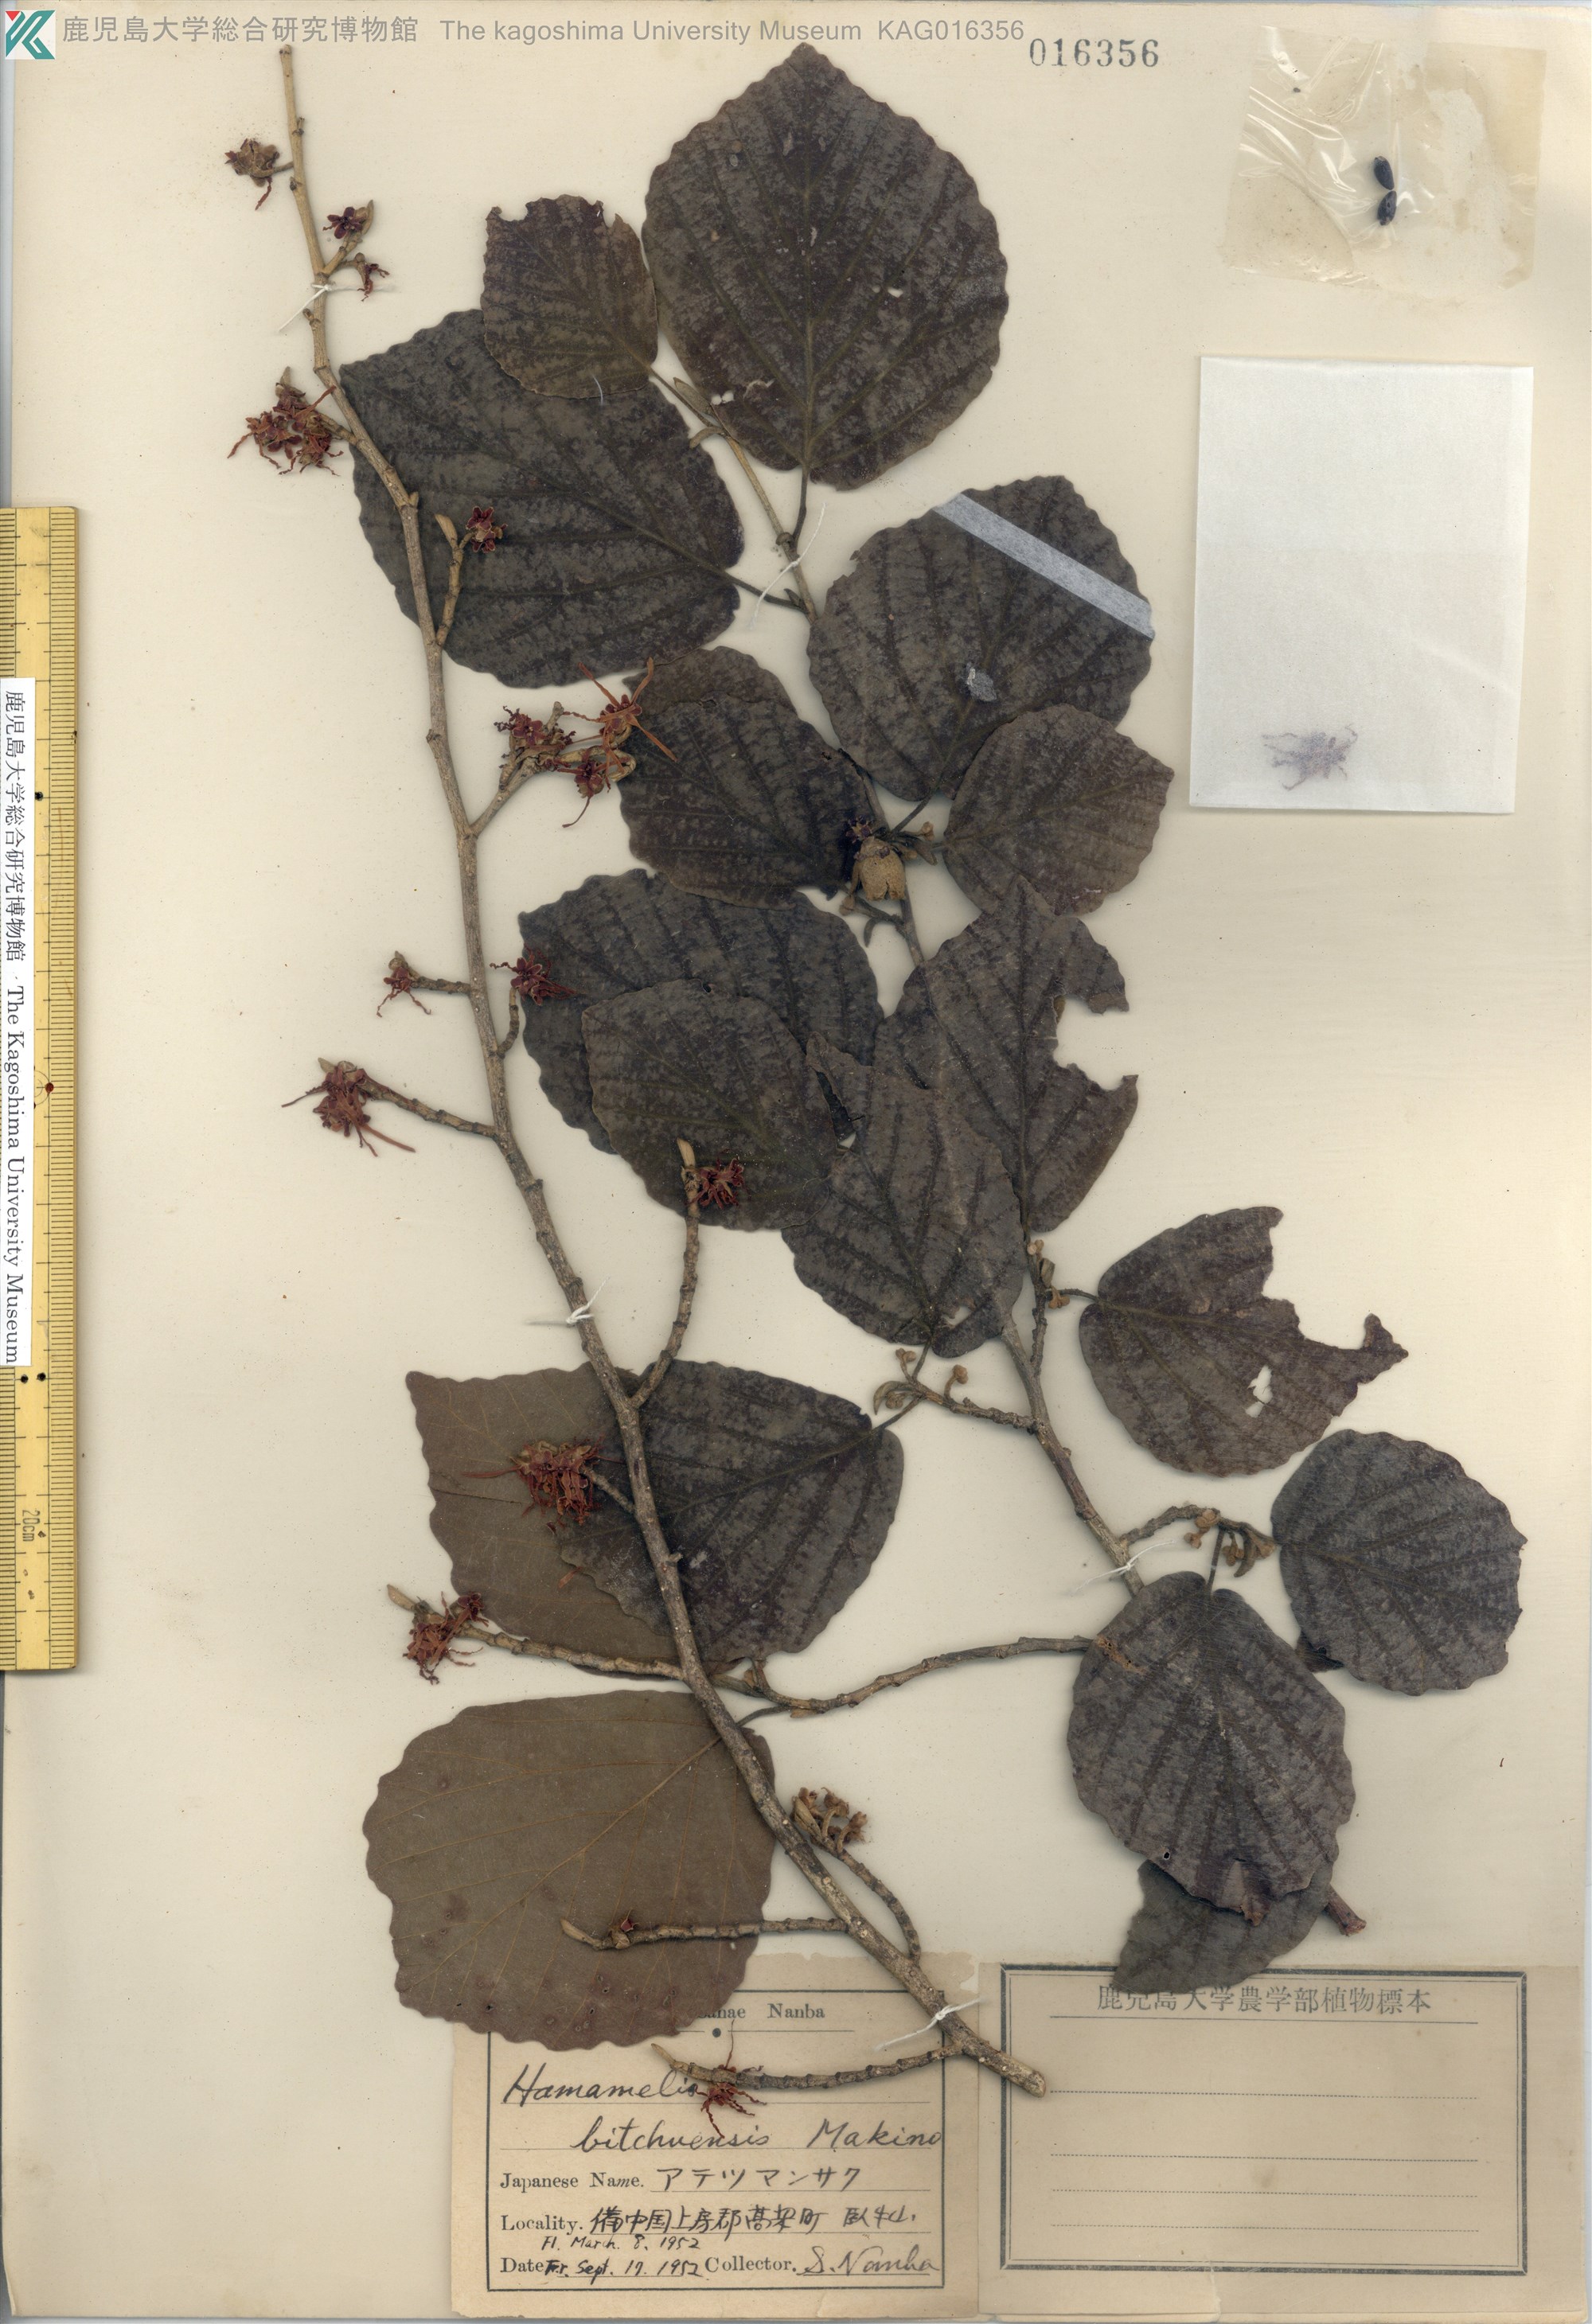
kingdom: Plantae
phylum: Tracheophyta
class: Magnoliopsida
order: Saxifragales
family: Hamamelidaceae
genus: Hamamelis
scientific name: Hamamelis japonica
